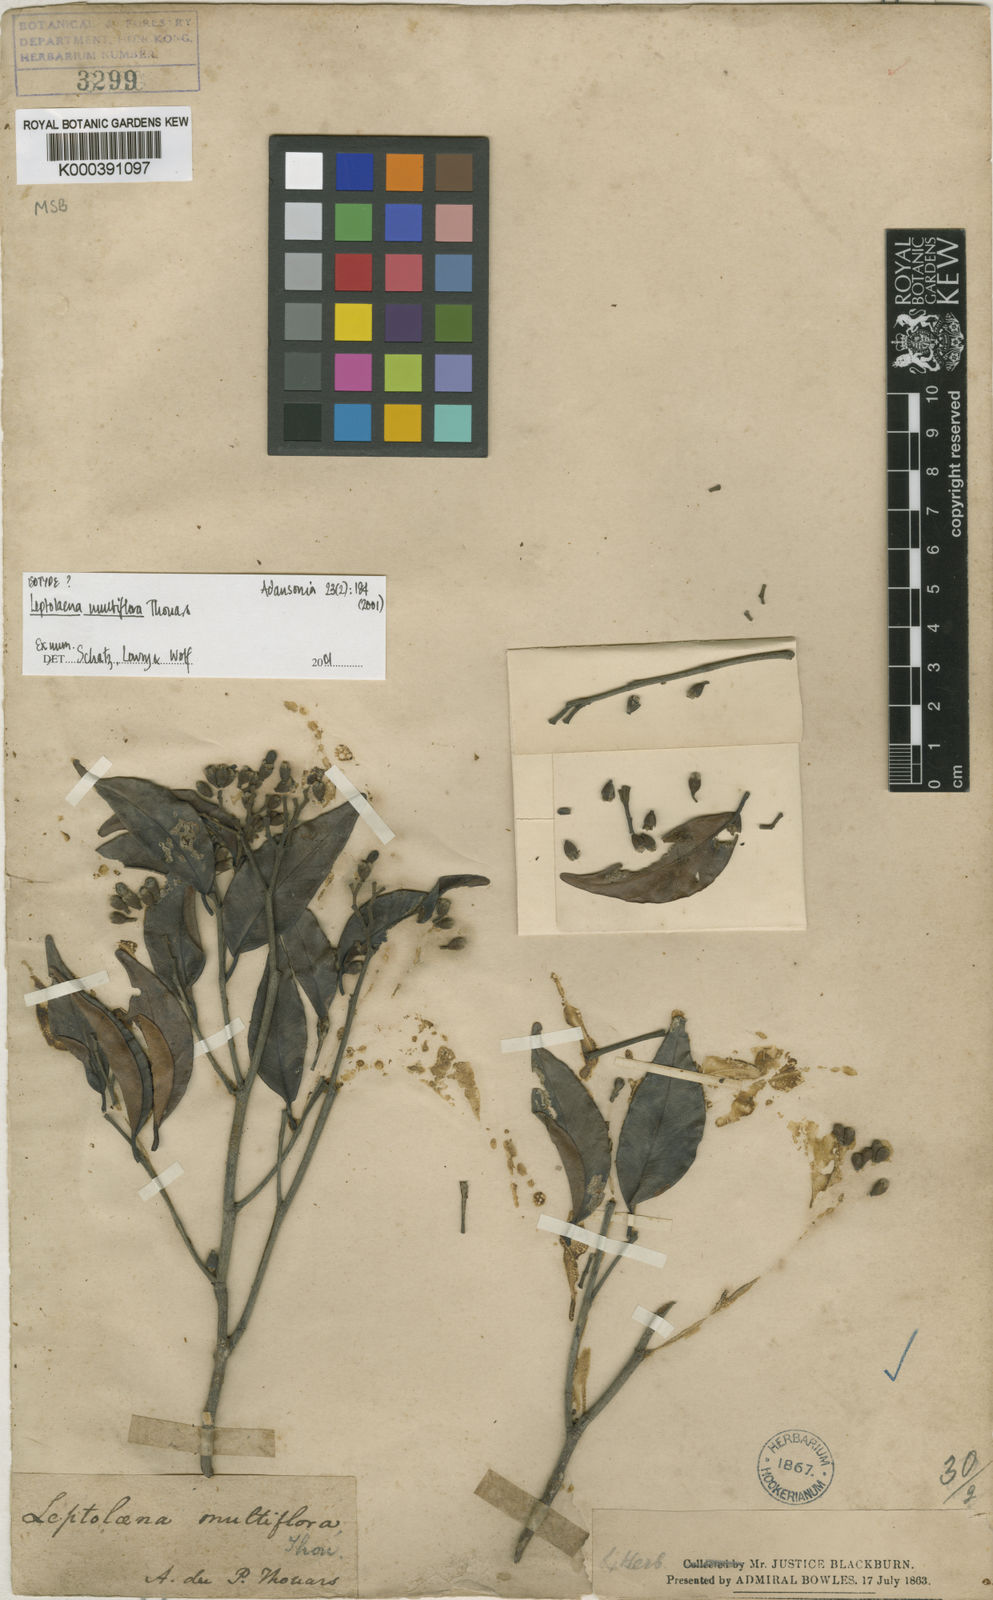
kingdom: Plantae
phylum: Tracheophyta
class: Magnoliopsida
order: Malvales
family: Sarcolaenaceae
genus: Leptolaena
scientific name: Leptolaena multiflora
